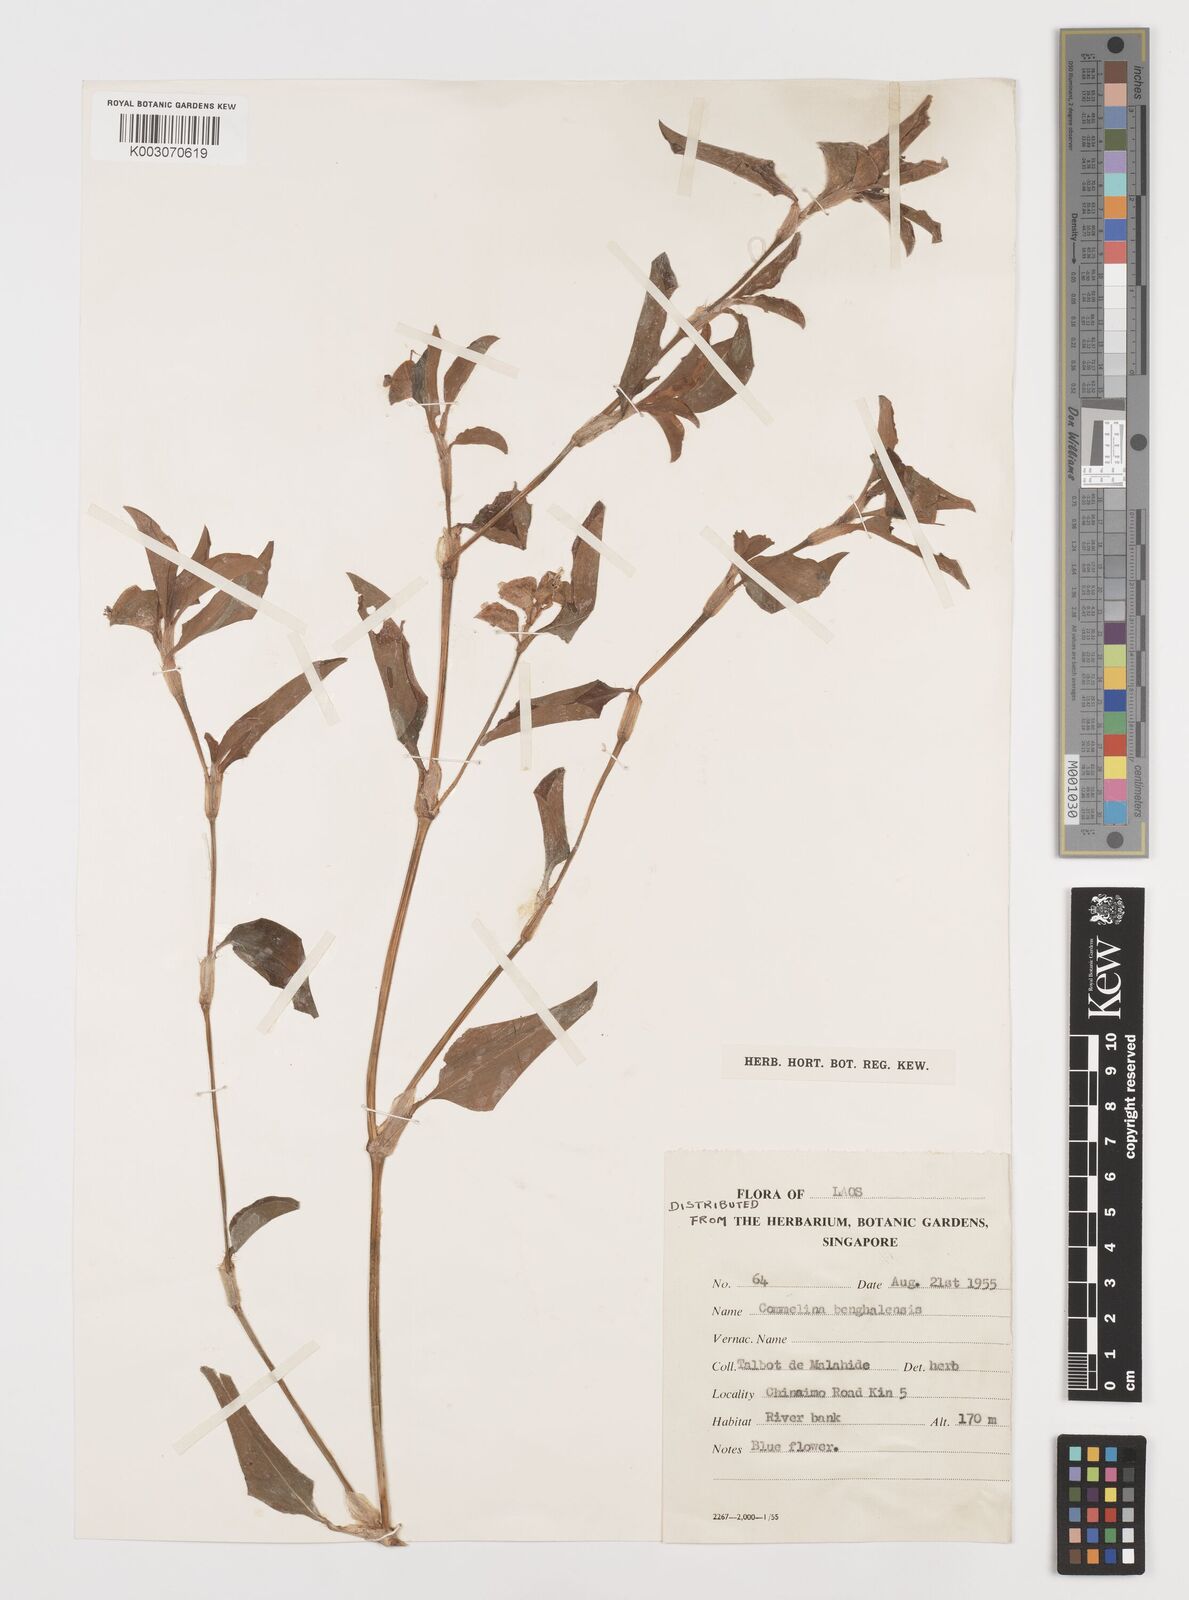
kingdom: Plantae
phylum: Tracheophyta
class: Liliopsida
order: Commelinales
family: Commelinaceae
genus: Commelina
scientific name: Commelina benghalensis
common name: Jio
